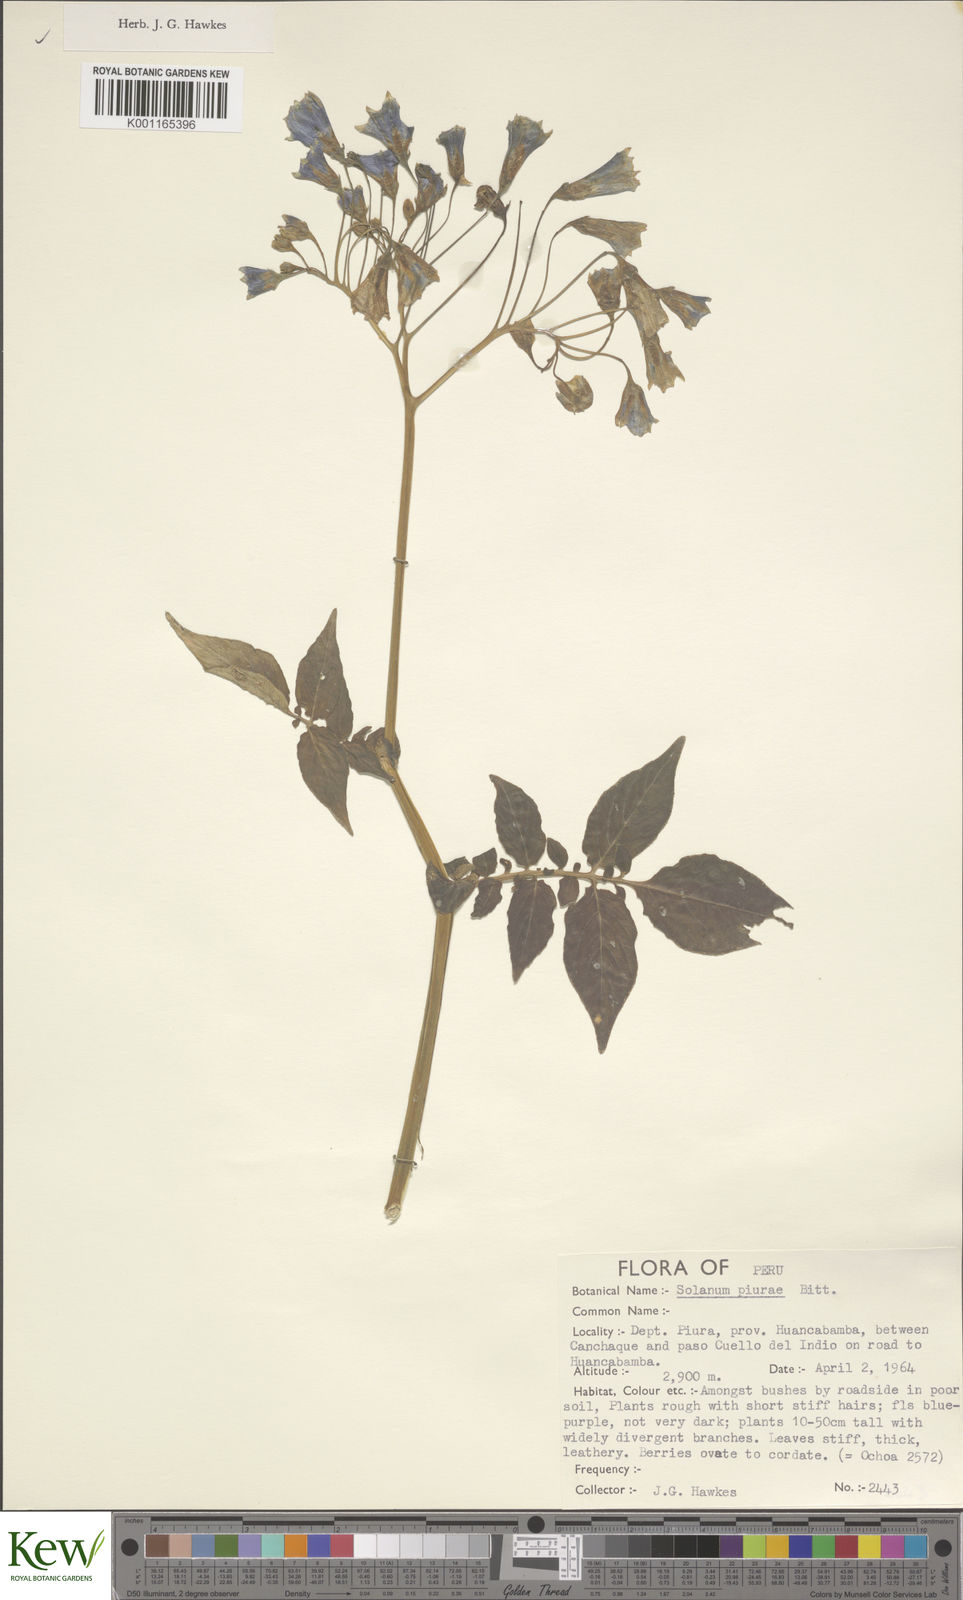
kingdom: Plantae
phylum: Tracheophyta
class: Magnoliopsida
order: Solanales
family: Solanaceae
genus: Solanum
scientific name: Solanum piurae
